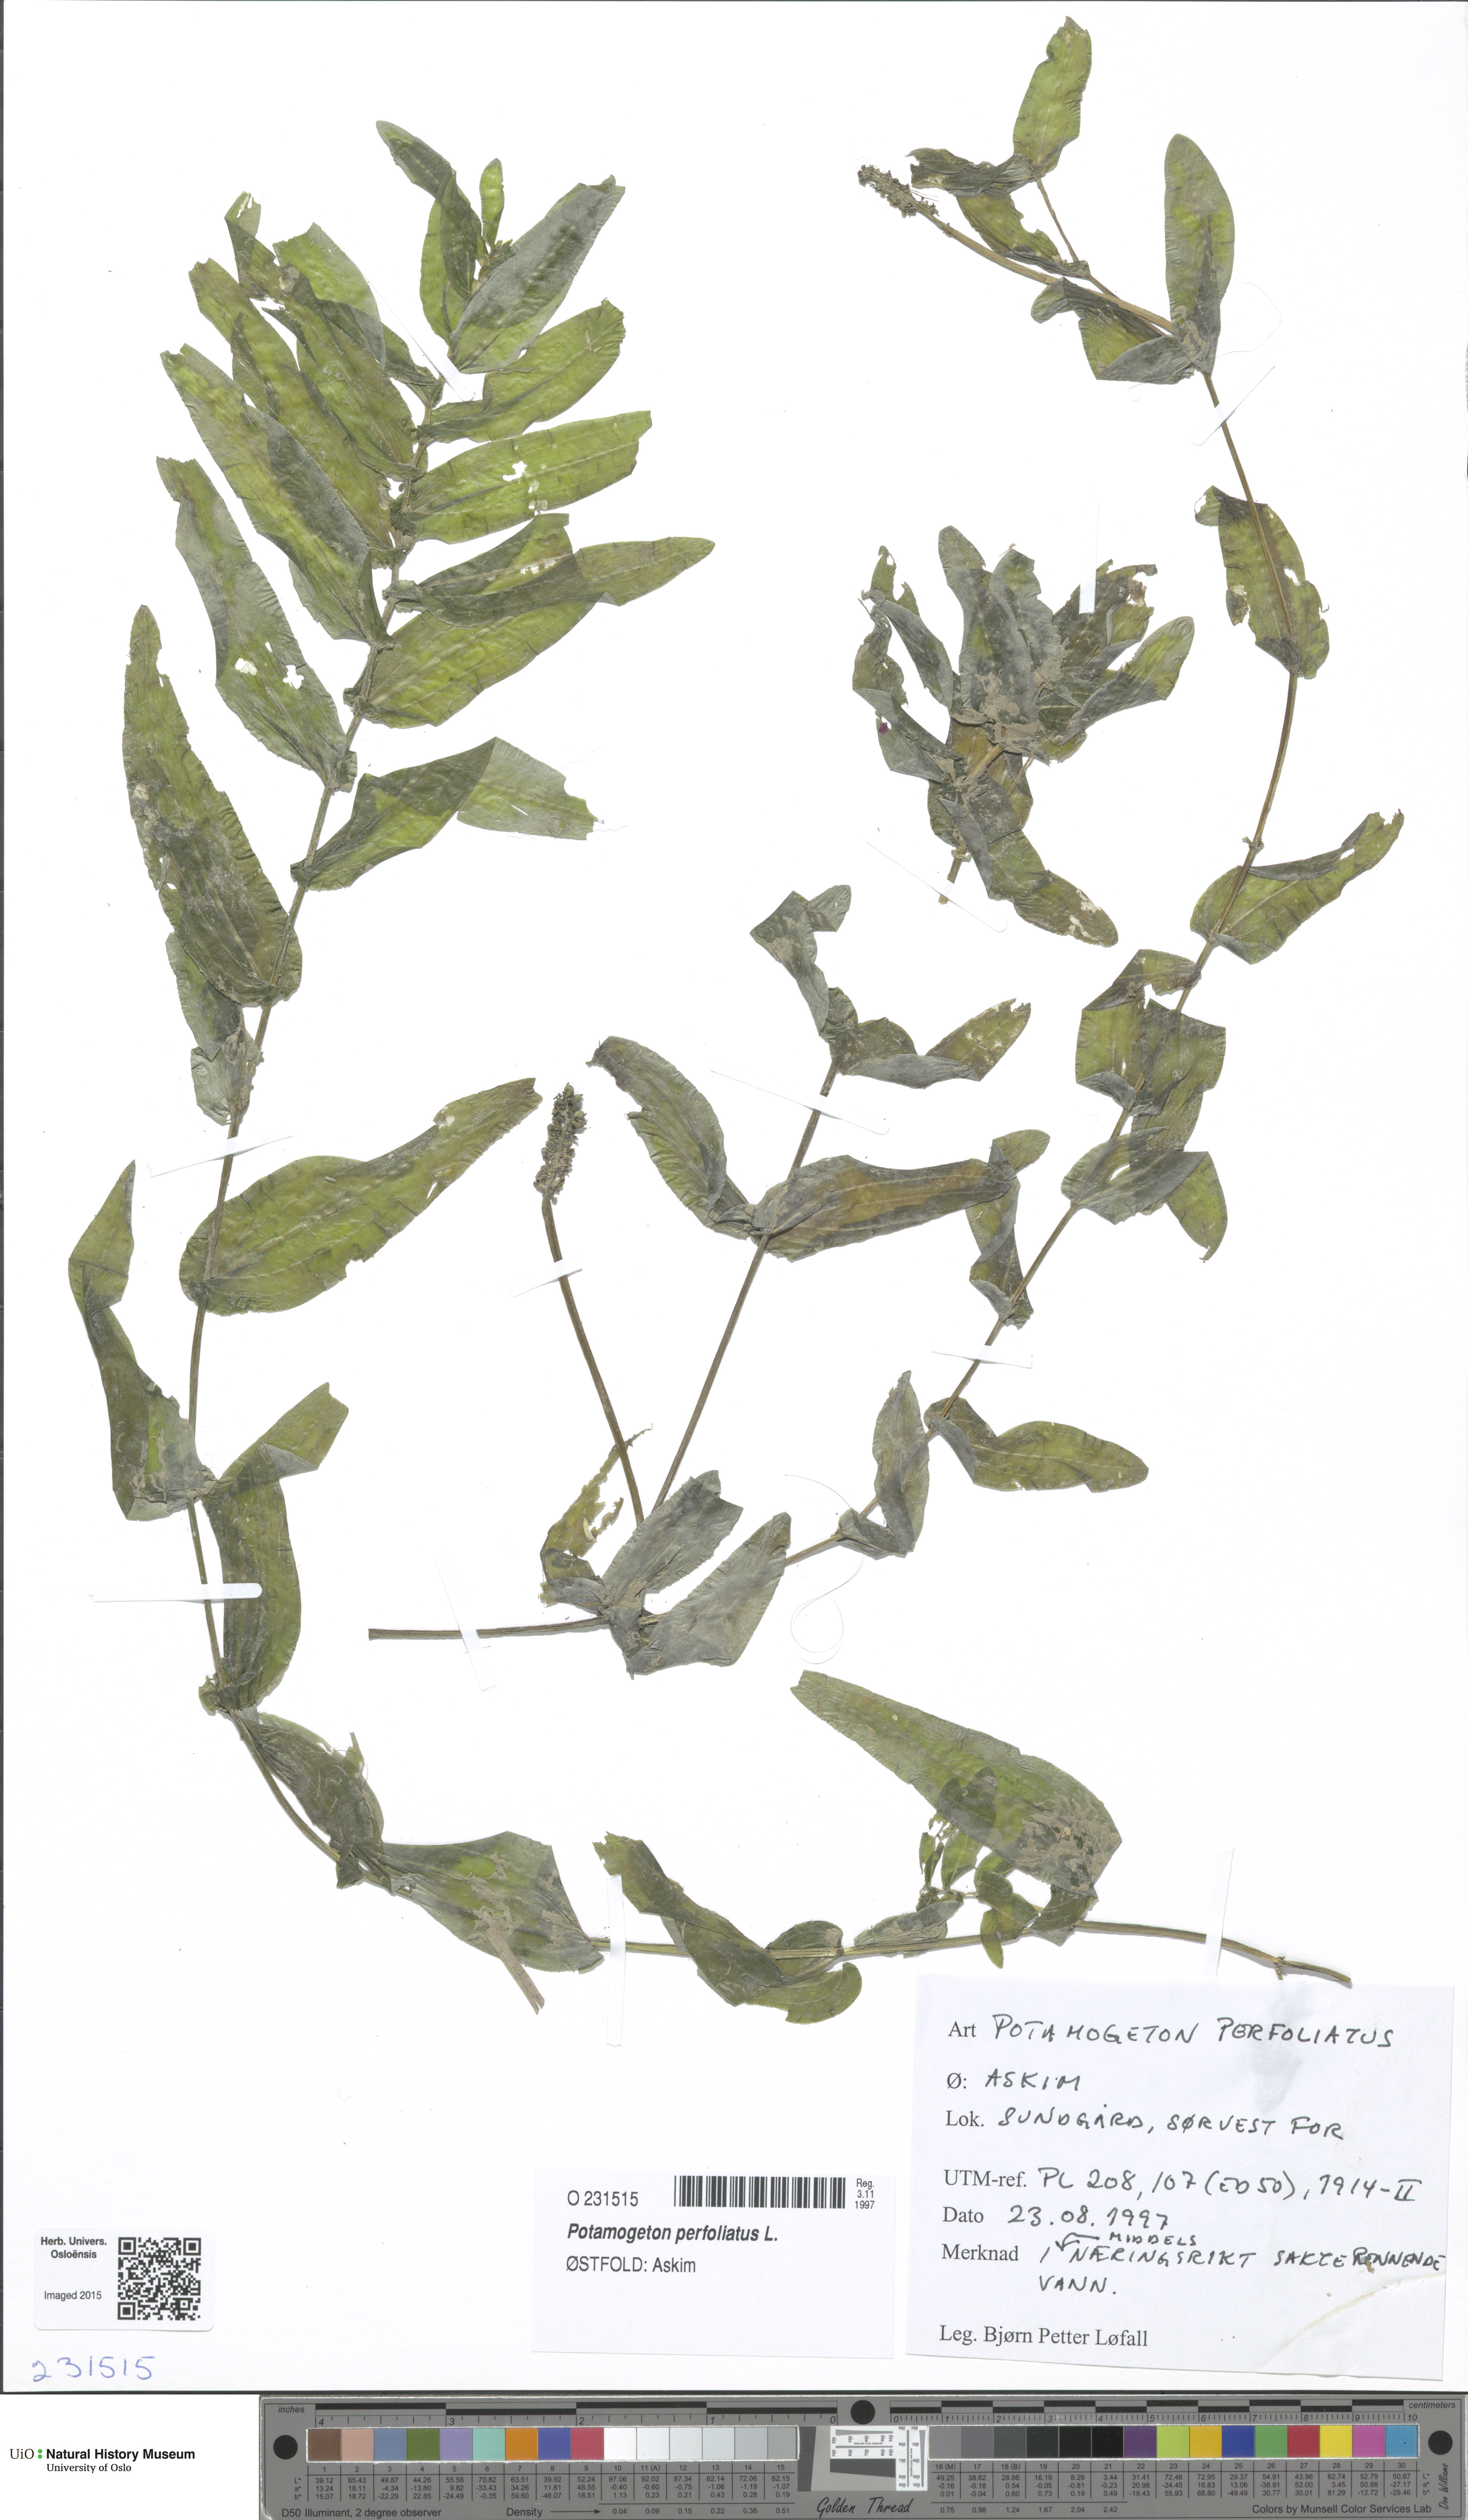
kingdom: Plantae
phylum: Tracheophyta
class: Liliopsida
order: Alismatales
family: Potamogetonaceae
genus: Potamogeton
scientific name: Potamogeton perfoliatus
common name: Perfoliate pondweed
